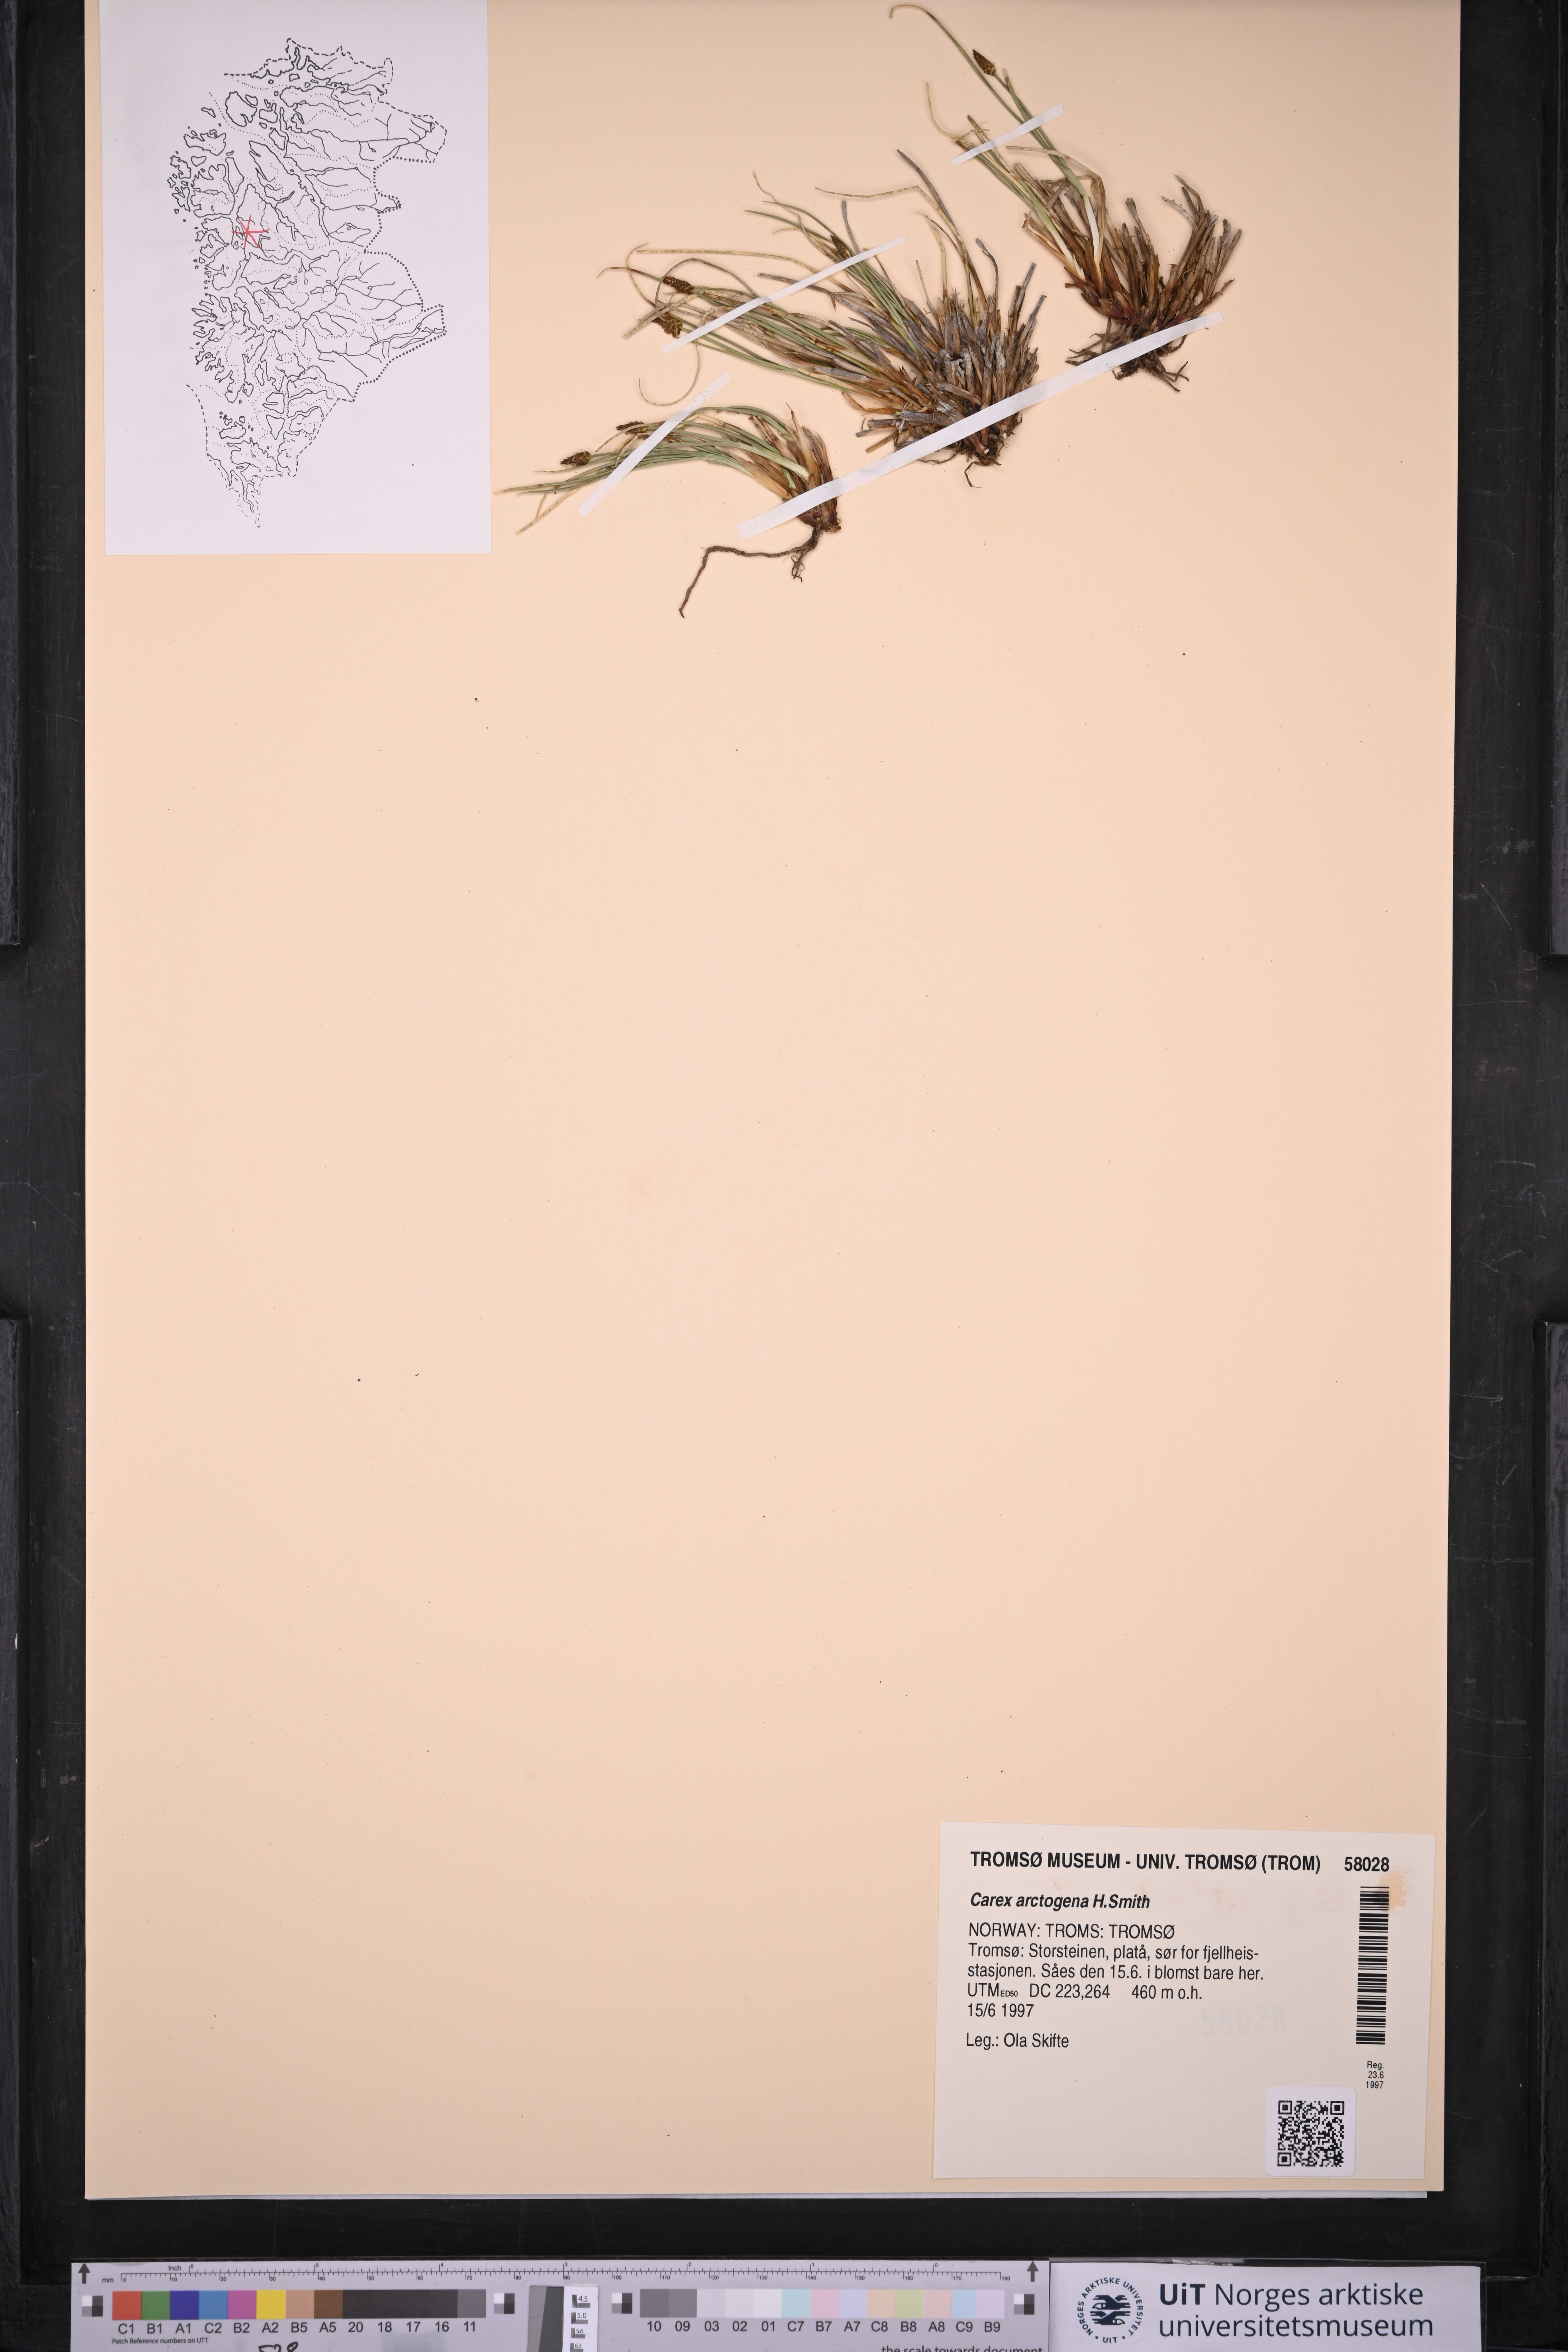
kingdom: Plantae
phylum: Tracheophyta
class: Liliopsida
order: Poales
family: Cyperaceae
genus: Carex
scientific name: Carex arctogena
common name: Black sedge
